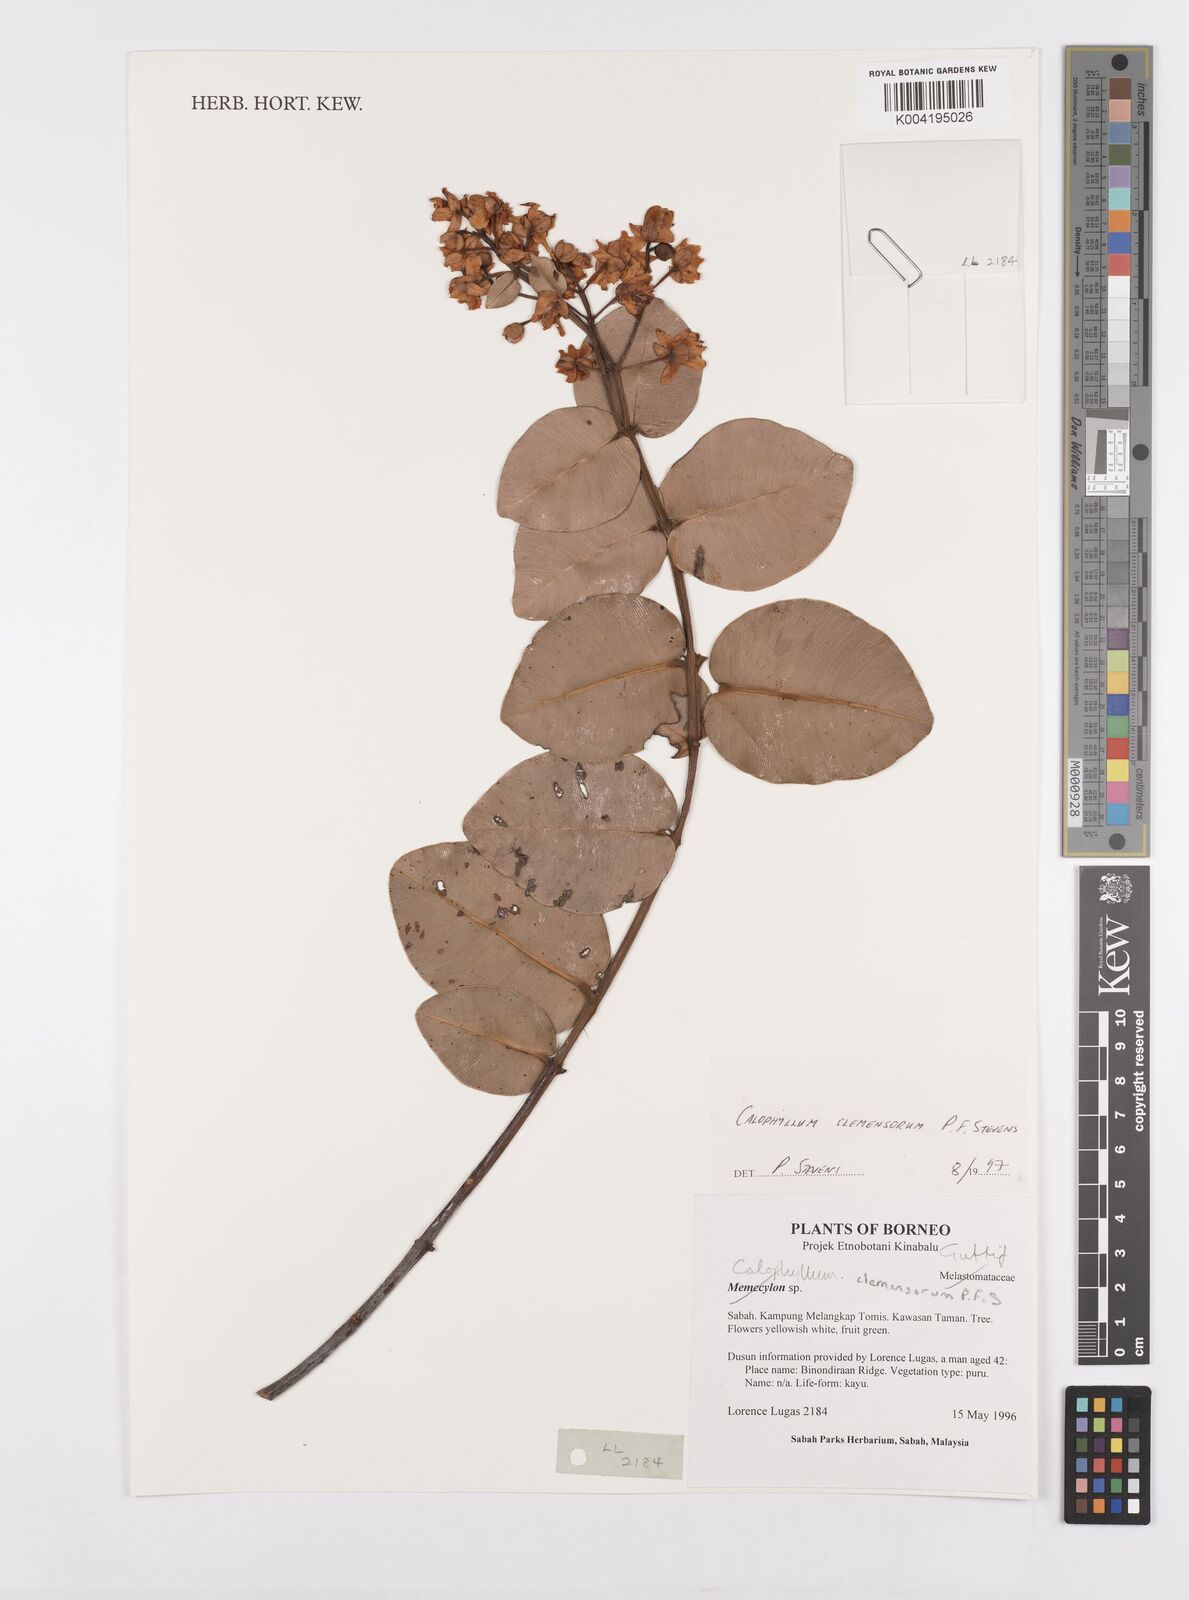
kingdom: Plantae
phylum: Tracheophyta
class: Magnoliopsida
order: Malpighiales
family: Calophyllaceae
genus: Calophyllum
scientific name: Calophyllum clemensiorum
